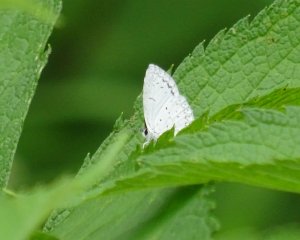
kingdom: Animalia
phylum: Arthropoda
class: Insecta
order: Lepidoptera
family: Lycaenidae
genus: Cyaniris
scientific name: Cyaniris neglecta
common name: Summer Azure
